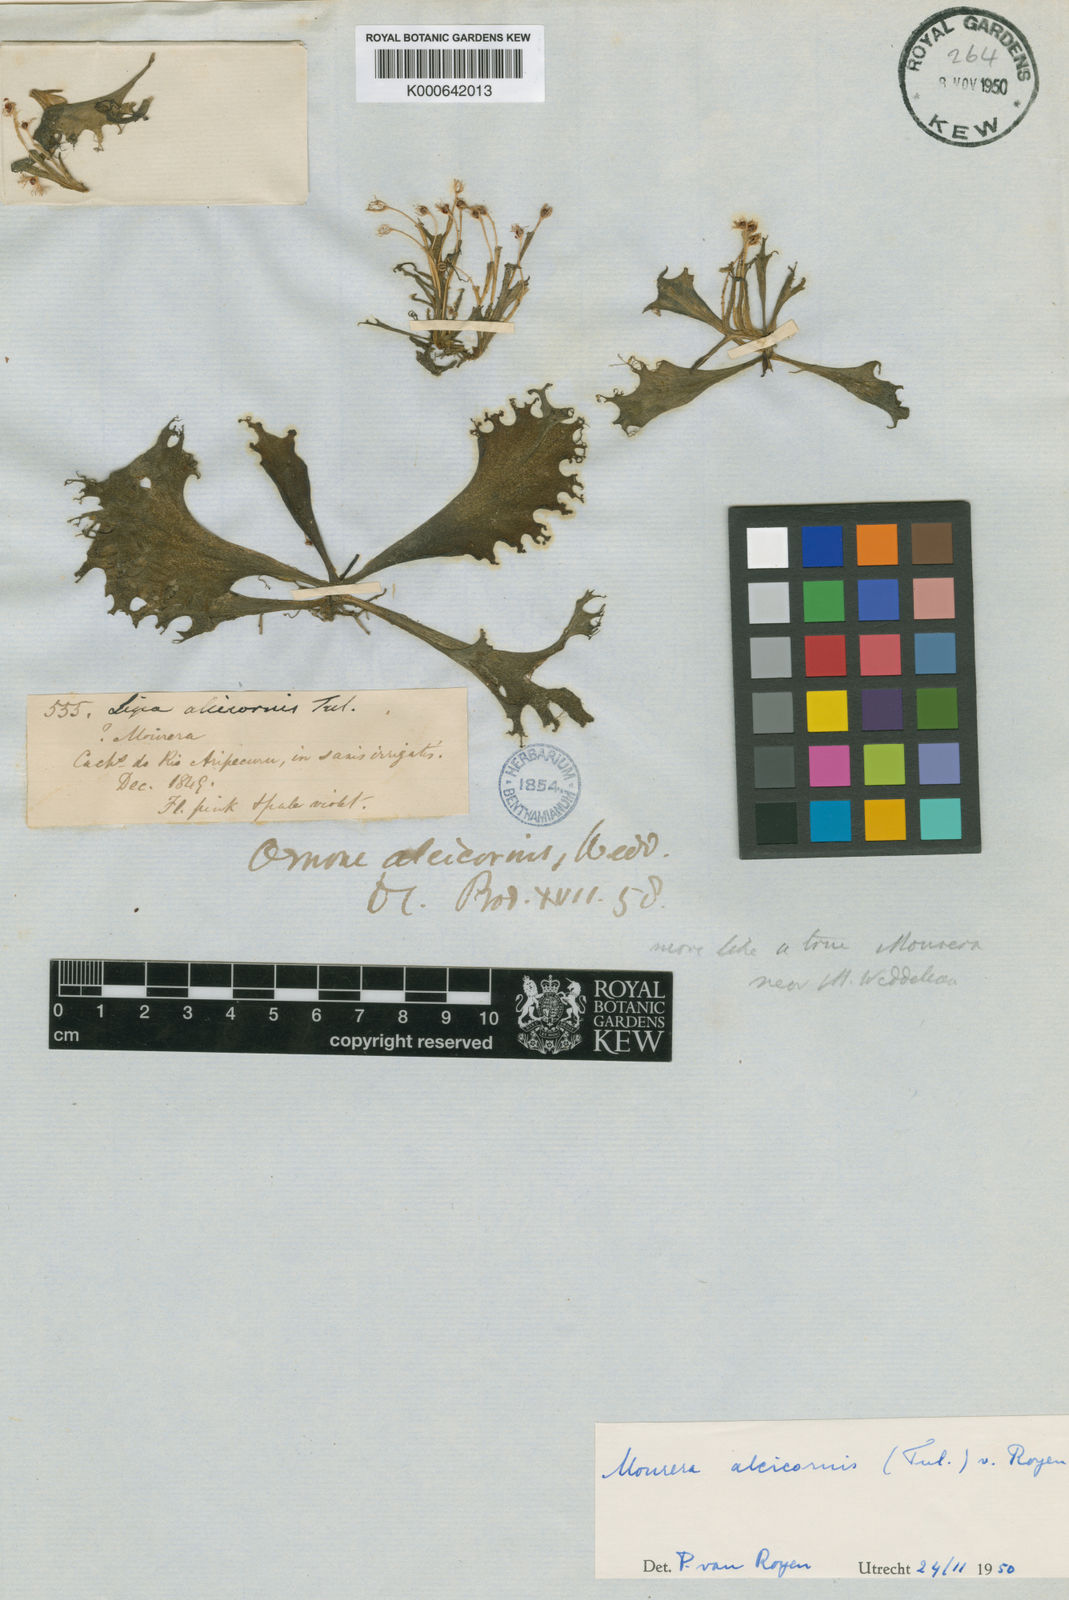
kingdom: Plantae
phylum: Tracheophyta
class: Magnoliopsida
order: Malpighiales
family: Podostemaceae
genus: Mourera
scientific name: Mourera alcicornis
